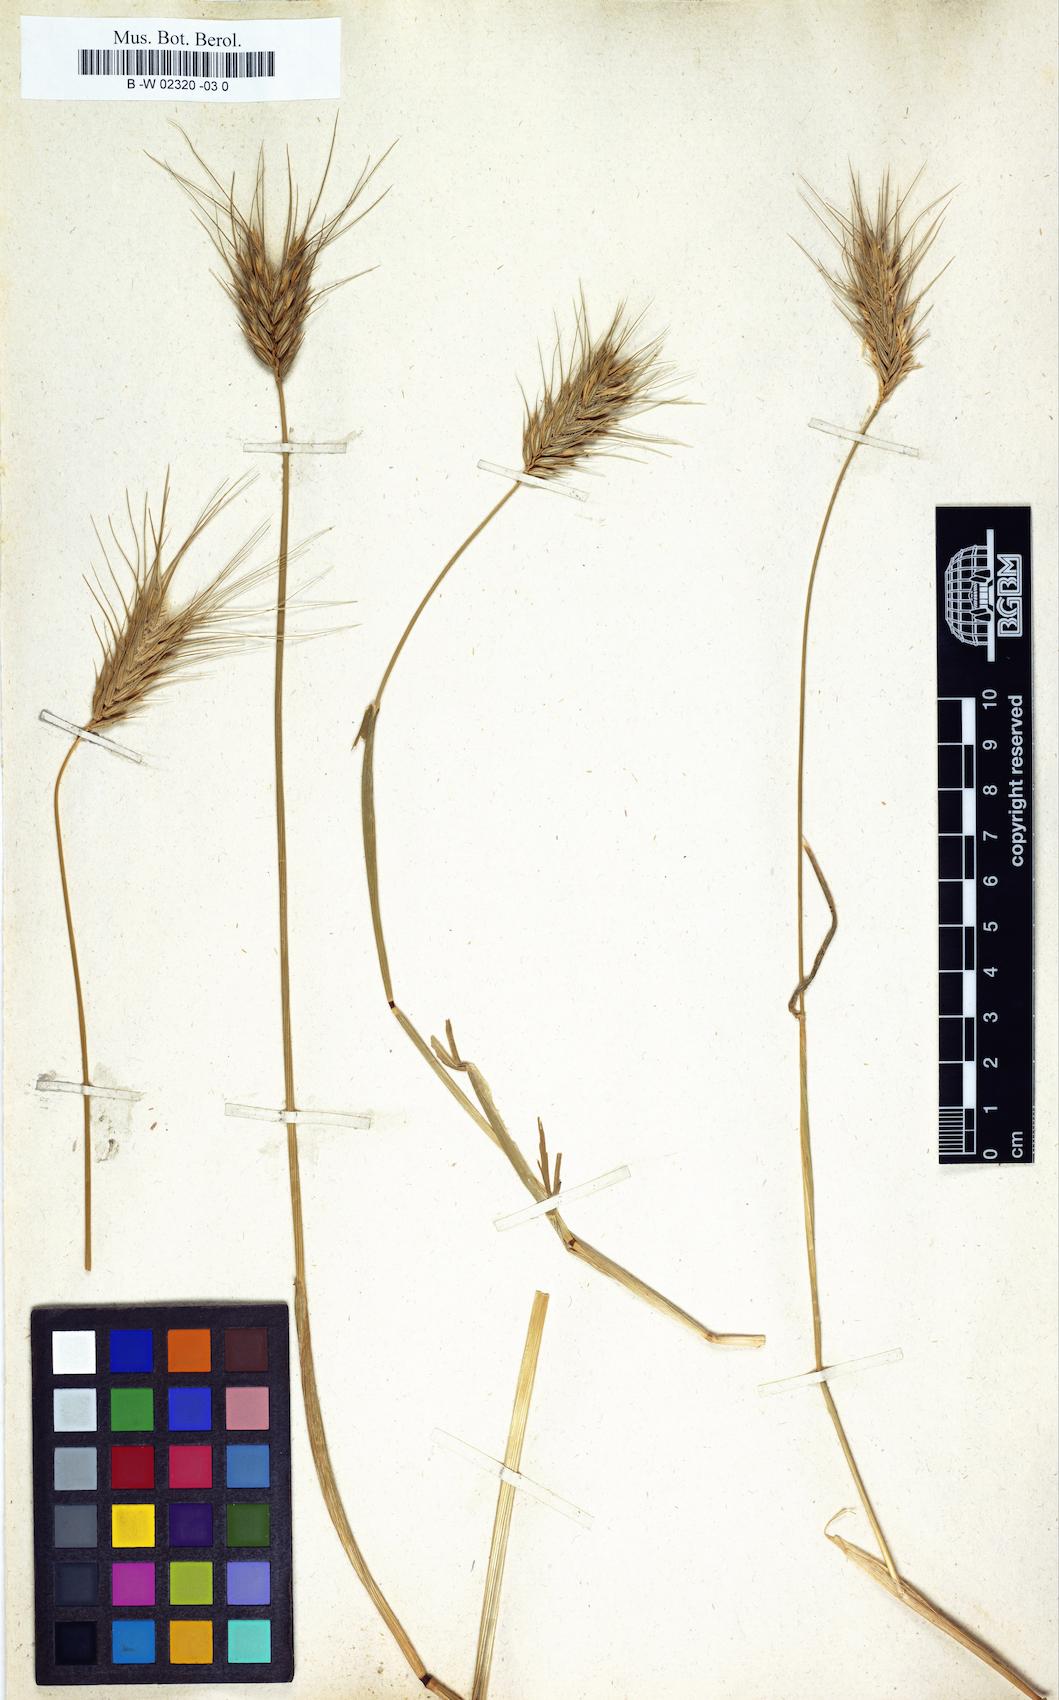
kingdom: Plantae
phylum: Tracheophyta
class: Liliopsida
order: Poales
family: Poaceae
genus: Secale
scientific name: Secale villosum
